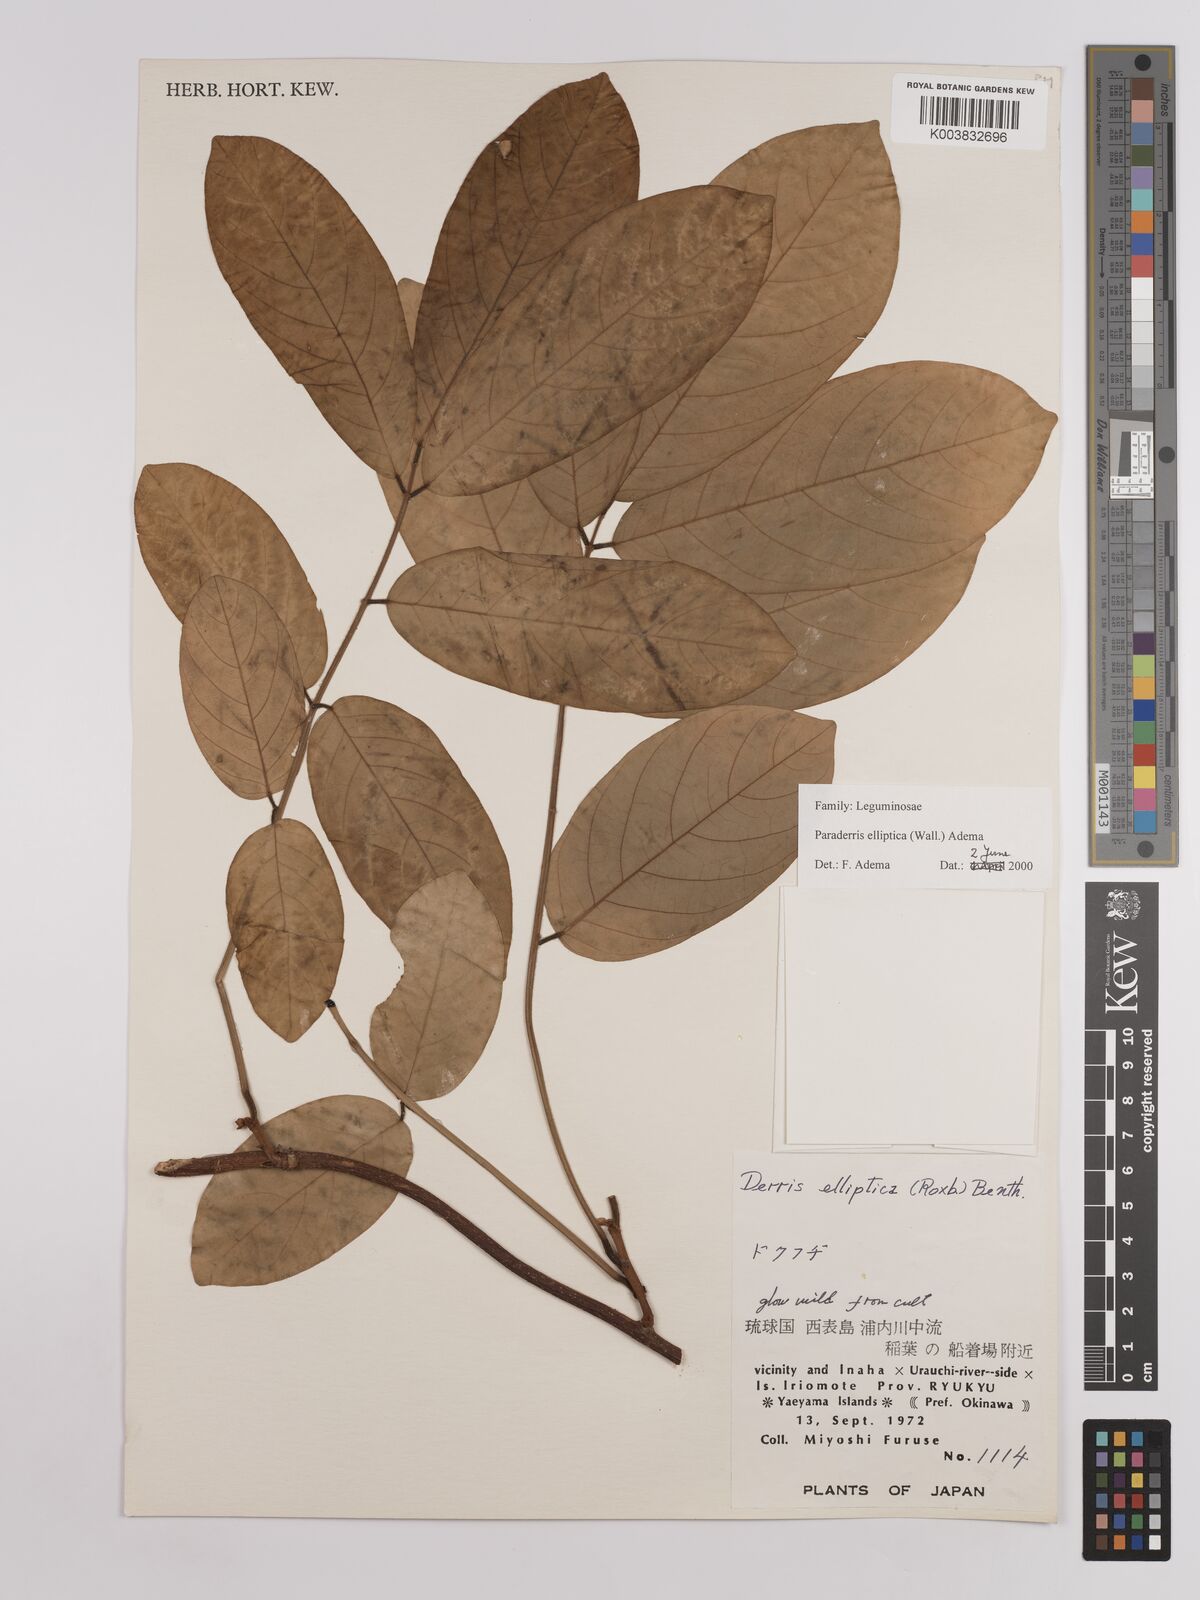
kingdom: Plantae
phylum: Tracheophyta
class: Magnoliopsida
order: Fabales
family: Fabaceae
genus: Derris
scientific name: Derris elliptica
